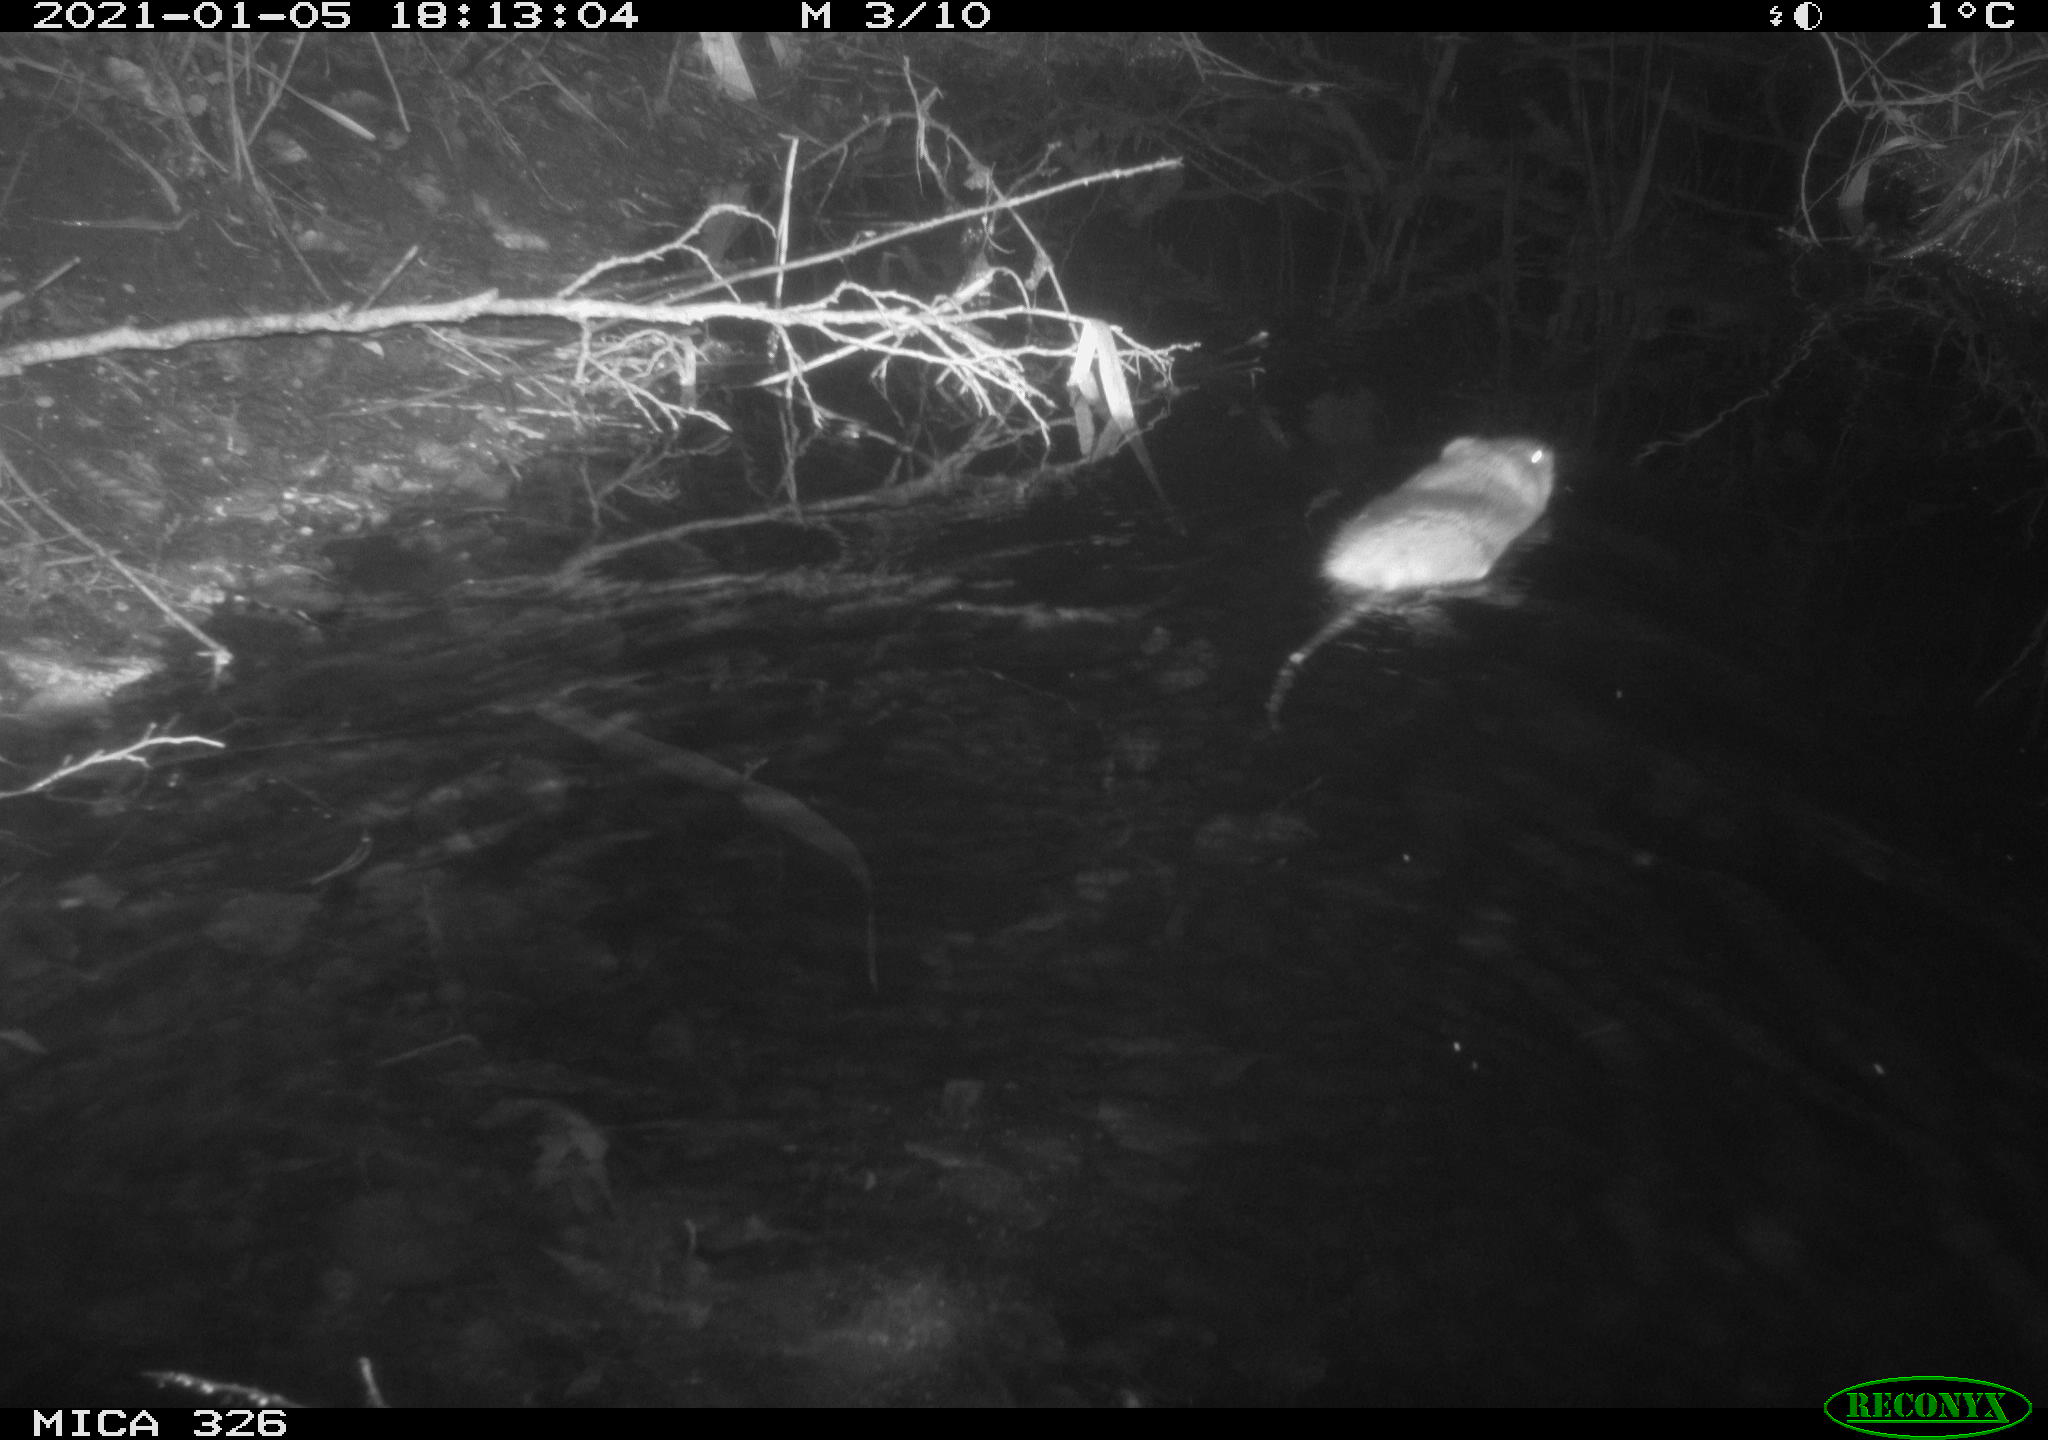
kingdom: Animalia
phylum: Chordata
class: Mammalia
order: Rodentia
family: Cricetidae
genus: Ondatra
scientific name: Ondatra zibethicus
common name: Muskrat
